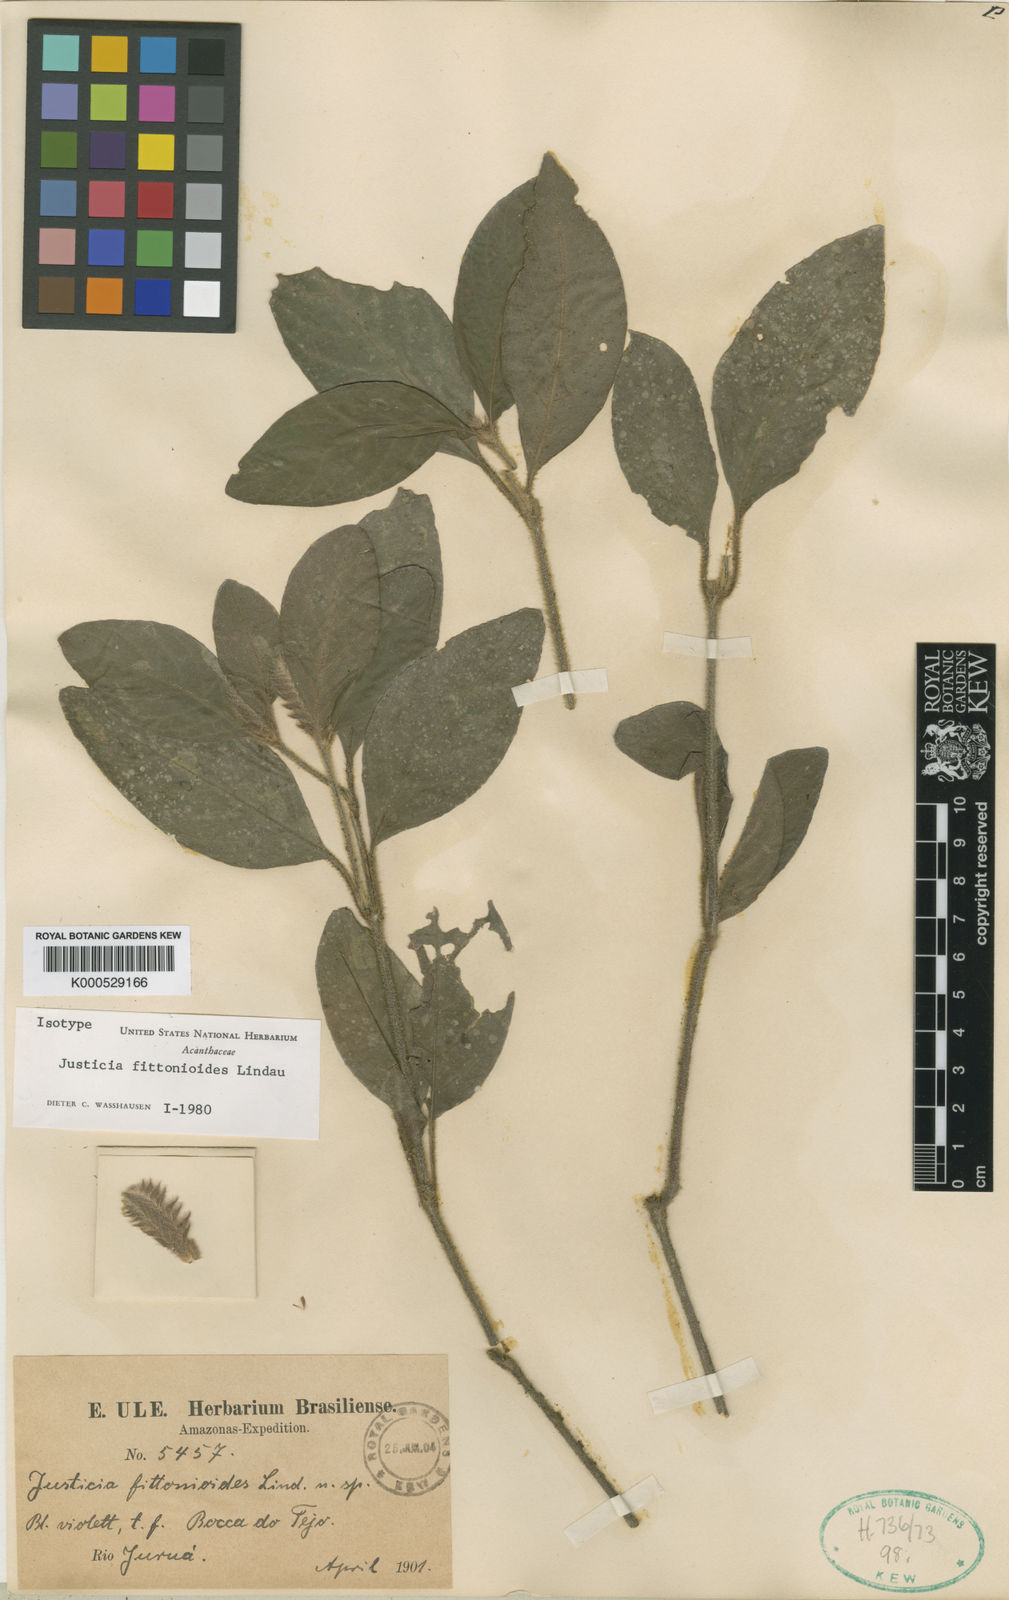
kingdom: Plantae
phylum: Tracheophyta
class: Magnoliopsida
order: Lamiales
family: Acanthaceae
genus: Justicia
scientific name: Justicia volkeri
